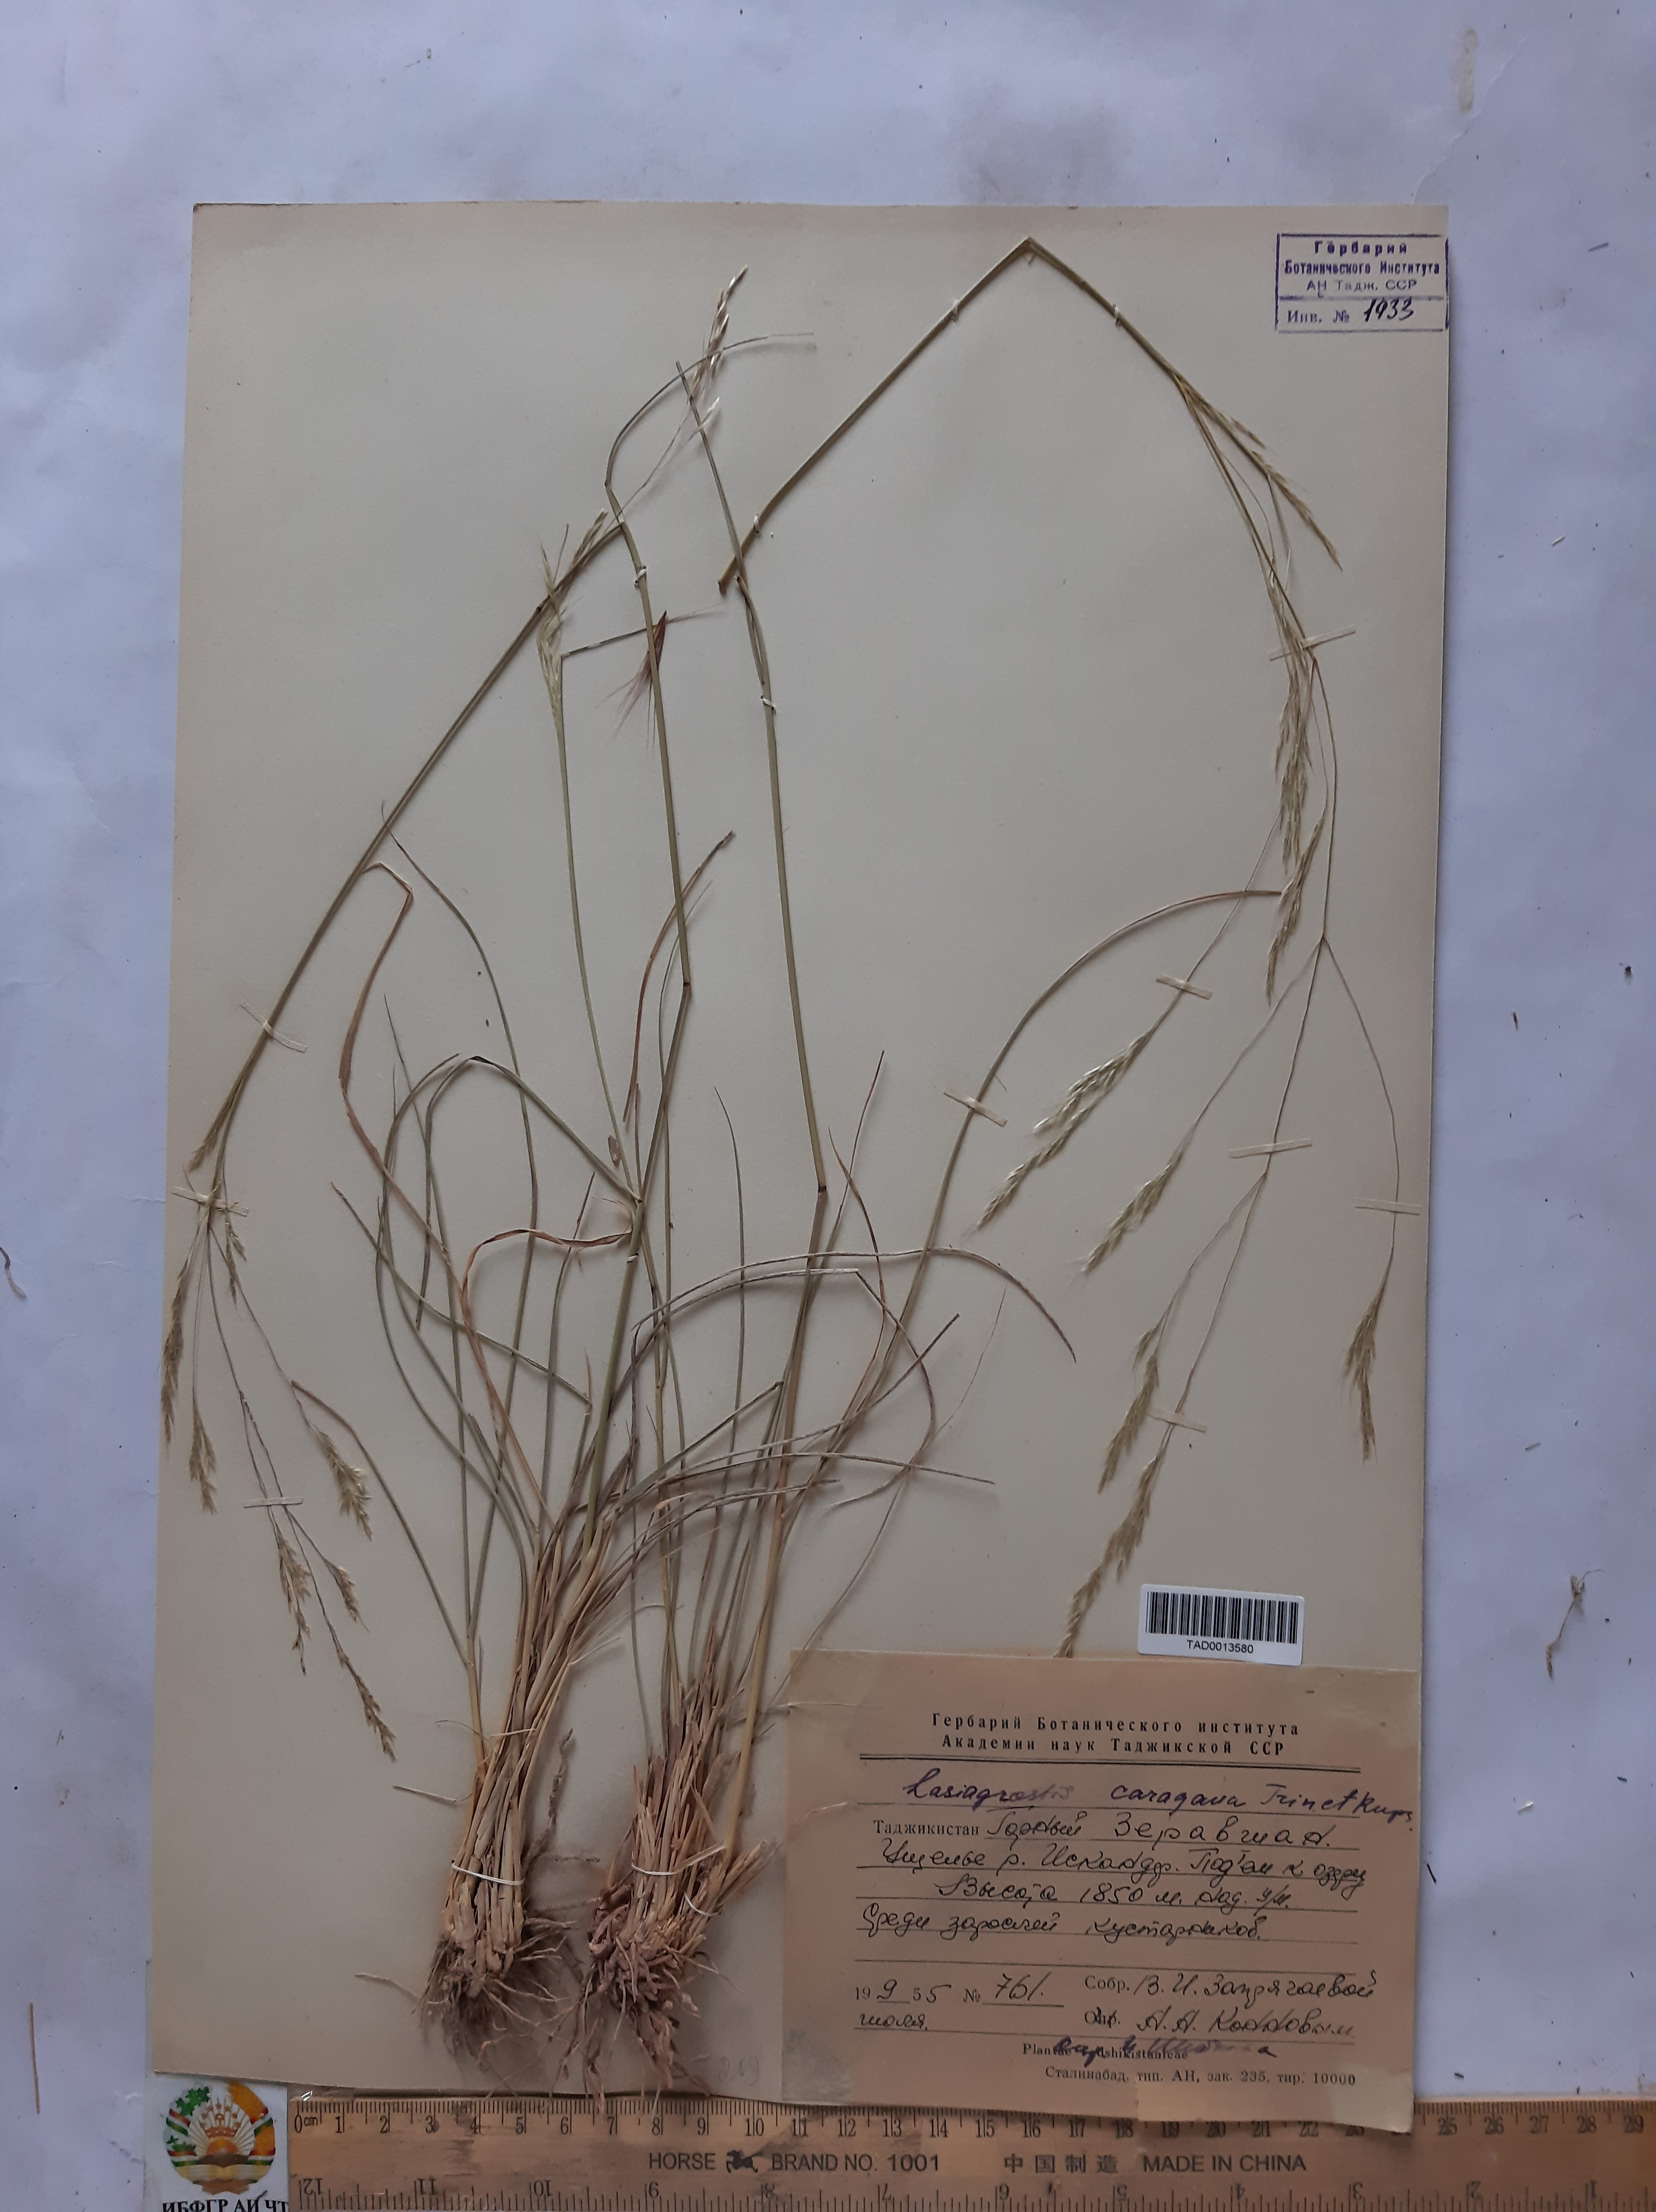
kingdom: Plantae
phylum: Tracheophyta
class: Liliopsida
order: Poales
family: Poaceae
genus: Stipa
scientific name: Stipa conferta
